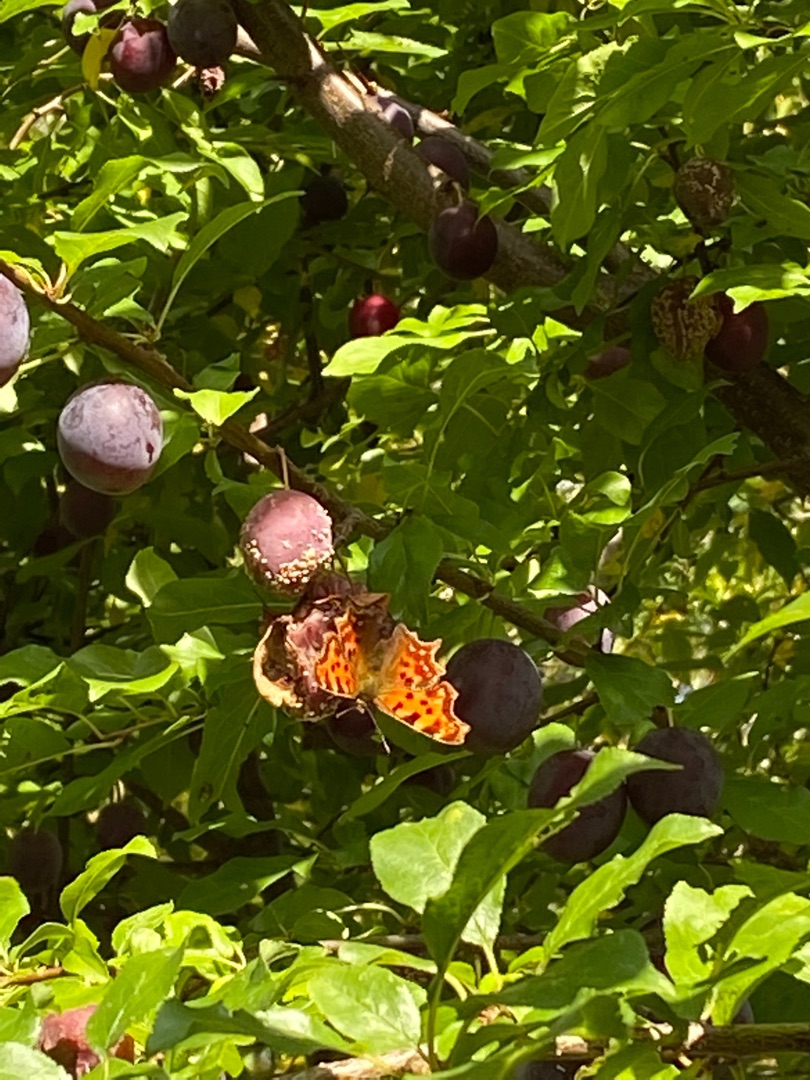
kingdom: Animalia
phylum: Arthropoda
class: Insecta
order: Lepidoptera
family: Nymphalidae
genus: Polygonia
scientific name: Polygonia c-album
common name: Det hvide C
